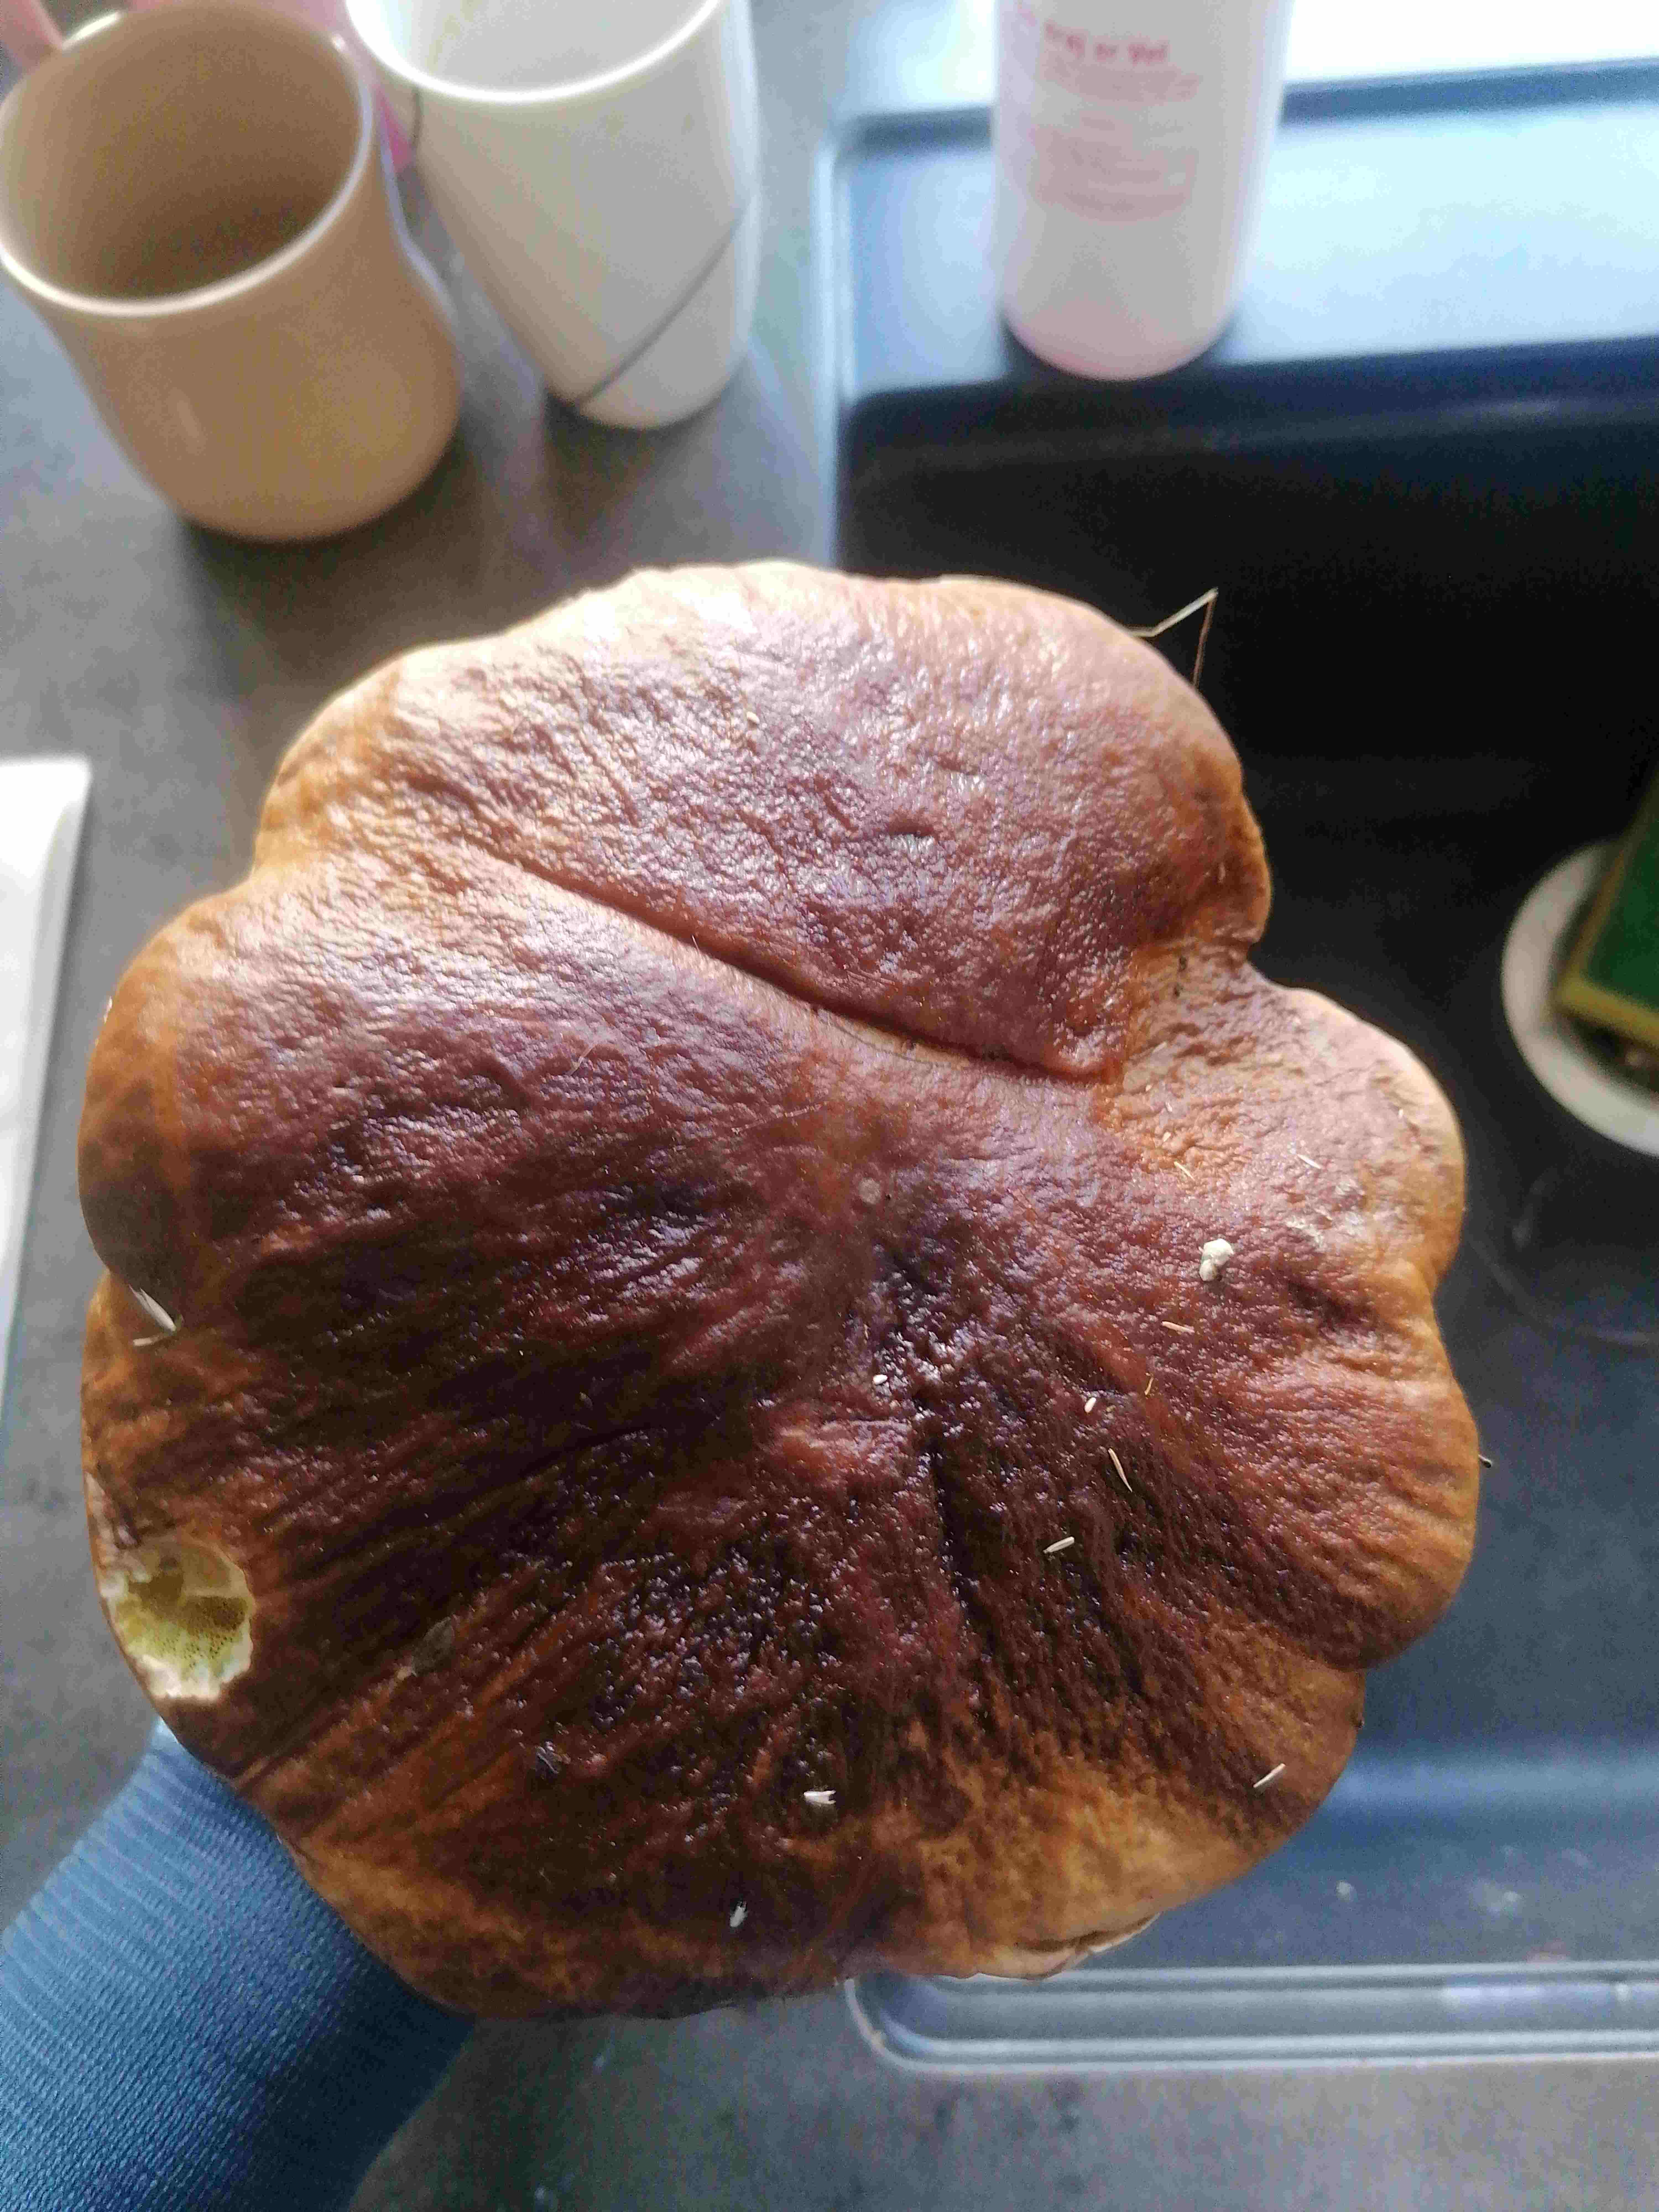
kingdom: Fungi
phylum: Basidiomycota
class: Agaricomycetes
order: Boletales
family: Boletaceae
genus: Boletus
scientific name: Boletus edulis
